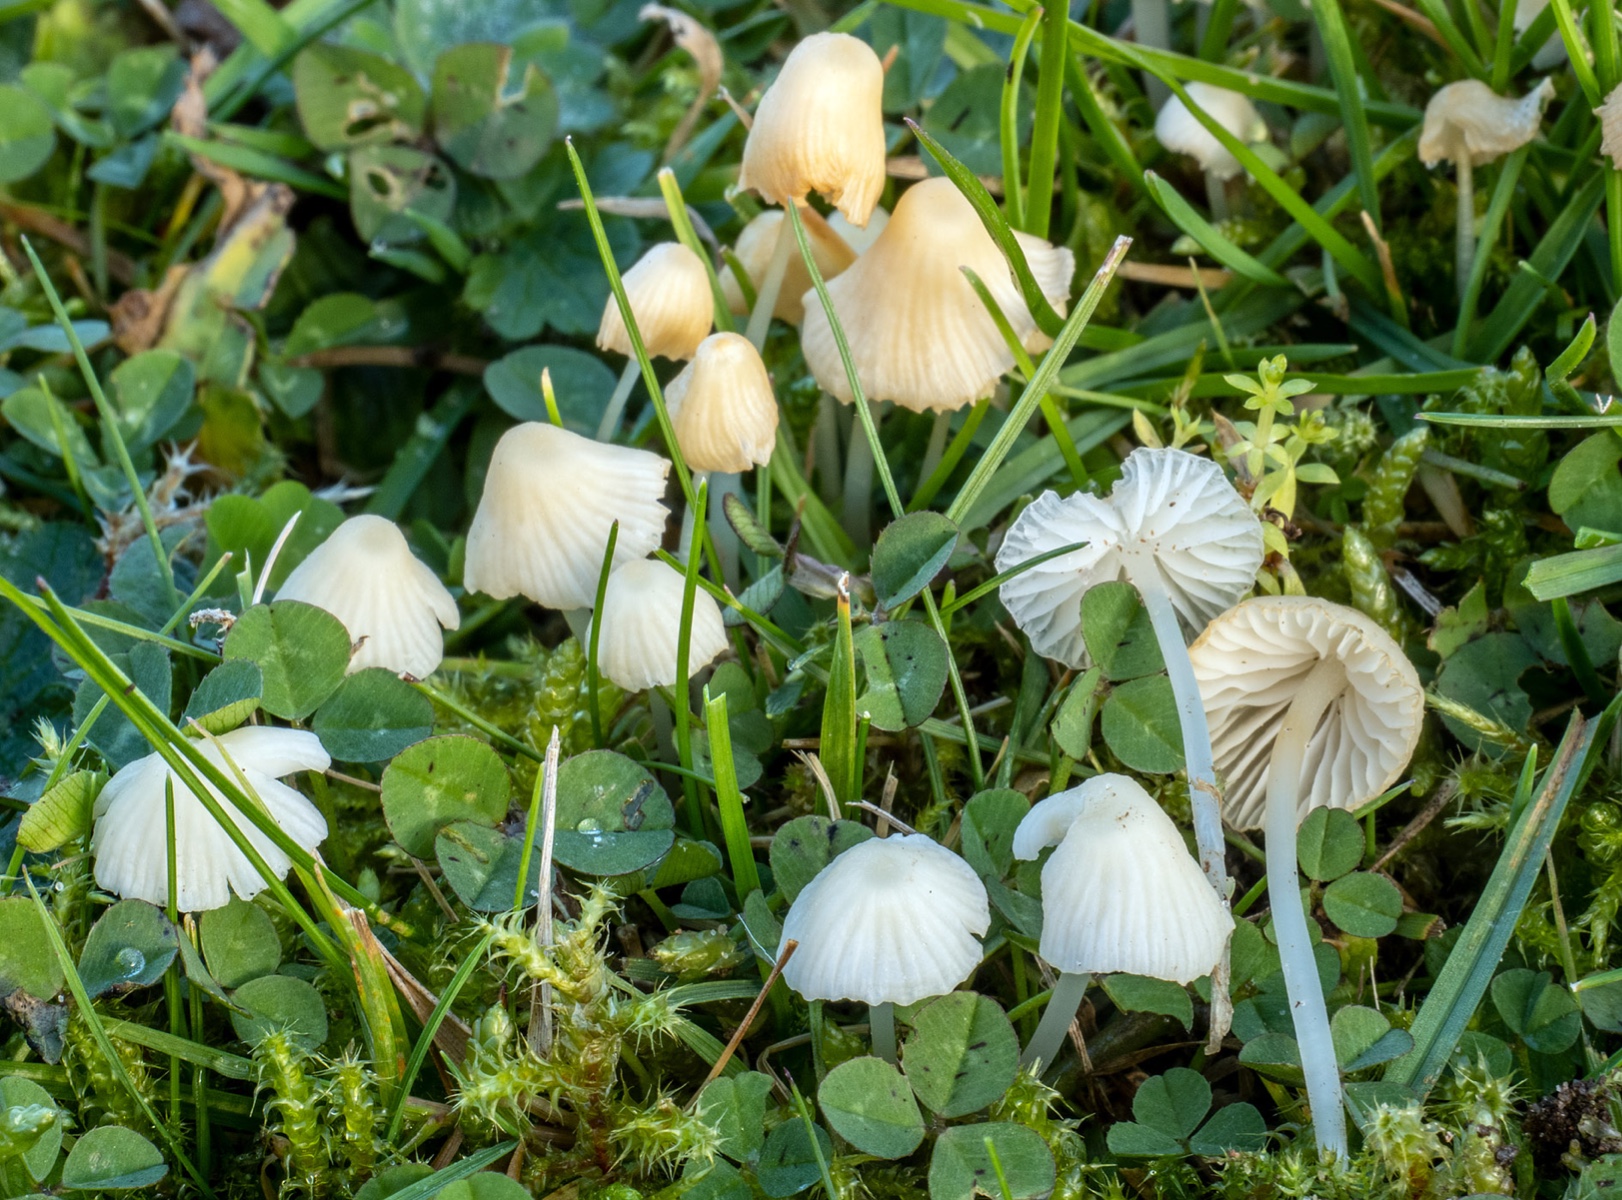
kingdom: Fungi
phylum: Basidiomycota
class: Agaricomycetes
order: Agaricales
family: Mycenaceae
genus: Atheniella
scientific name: Atheniella flavoalba
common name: gulhvid huesvamp
